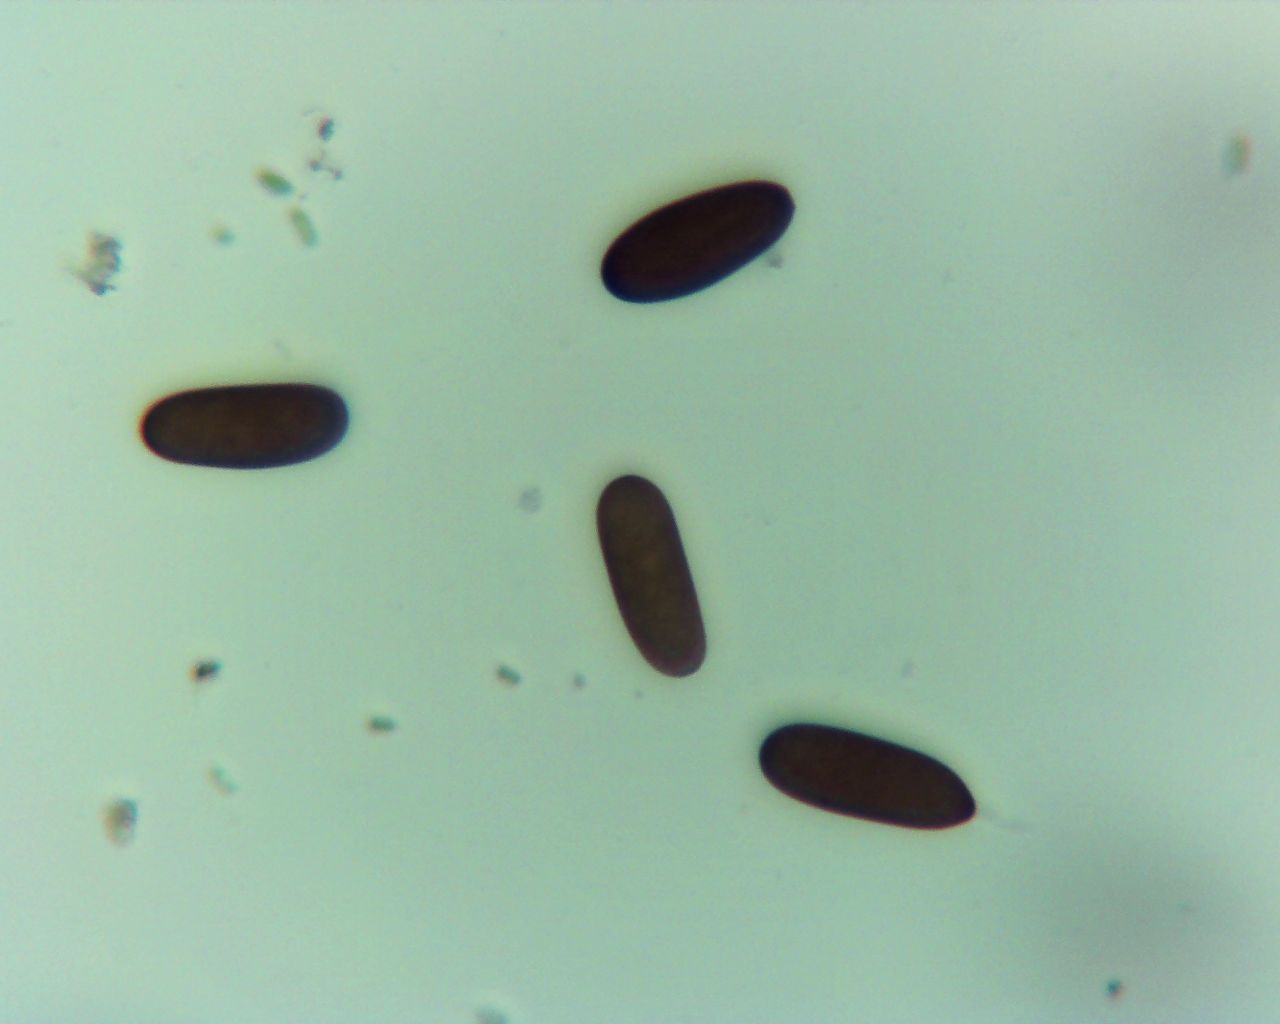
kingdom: Fungi
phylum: Ascomycota
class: Dothideomycetes
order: Botryosphaeriales
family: Botryosphaeriaceae
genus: Sphaeropsis
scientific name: Sphaeropsis sapinea
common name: Sphaeropsis blight
